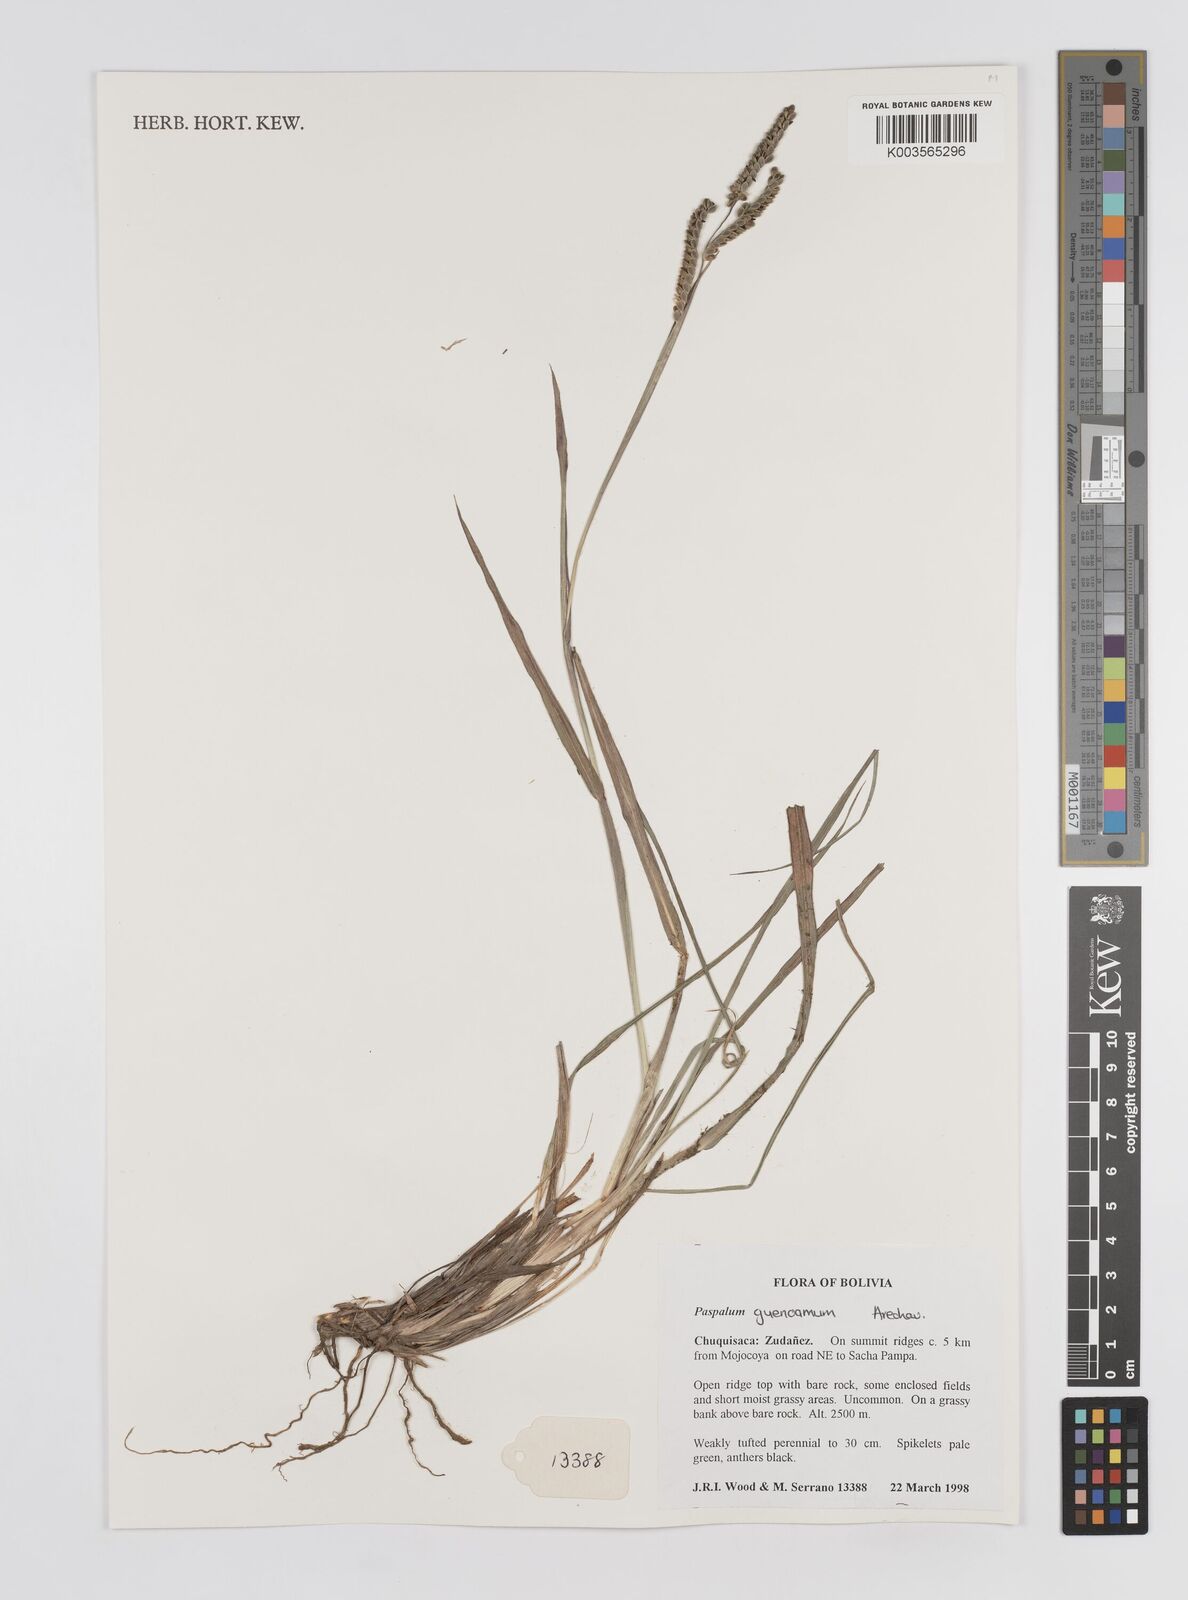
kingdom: Plantae
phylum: Tracheophyta
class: Liliopsida
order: Poales
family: Poaceae
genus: Paspalum
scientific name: Paspalum guenoarum
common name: Wintergreen paspalum
